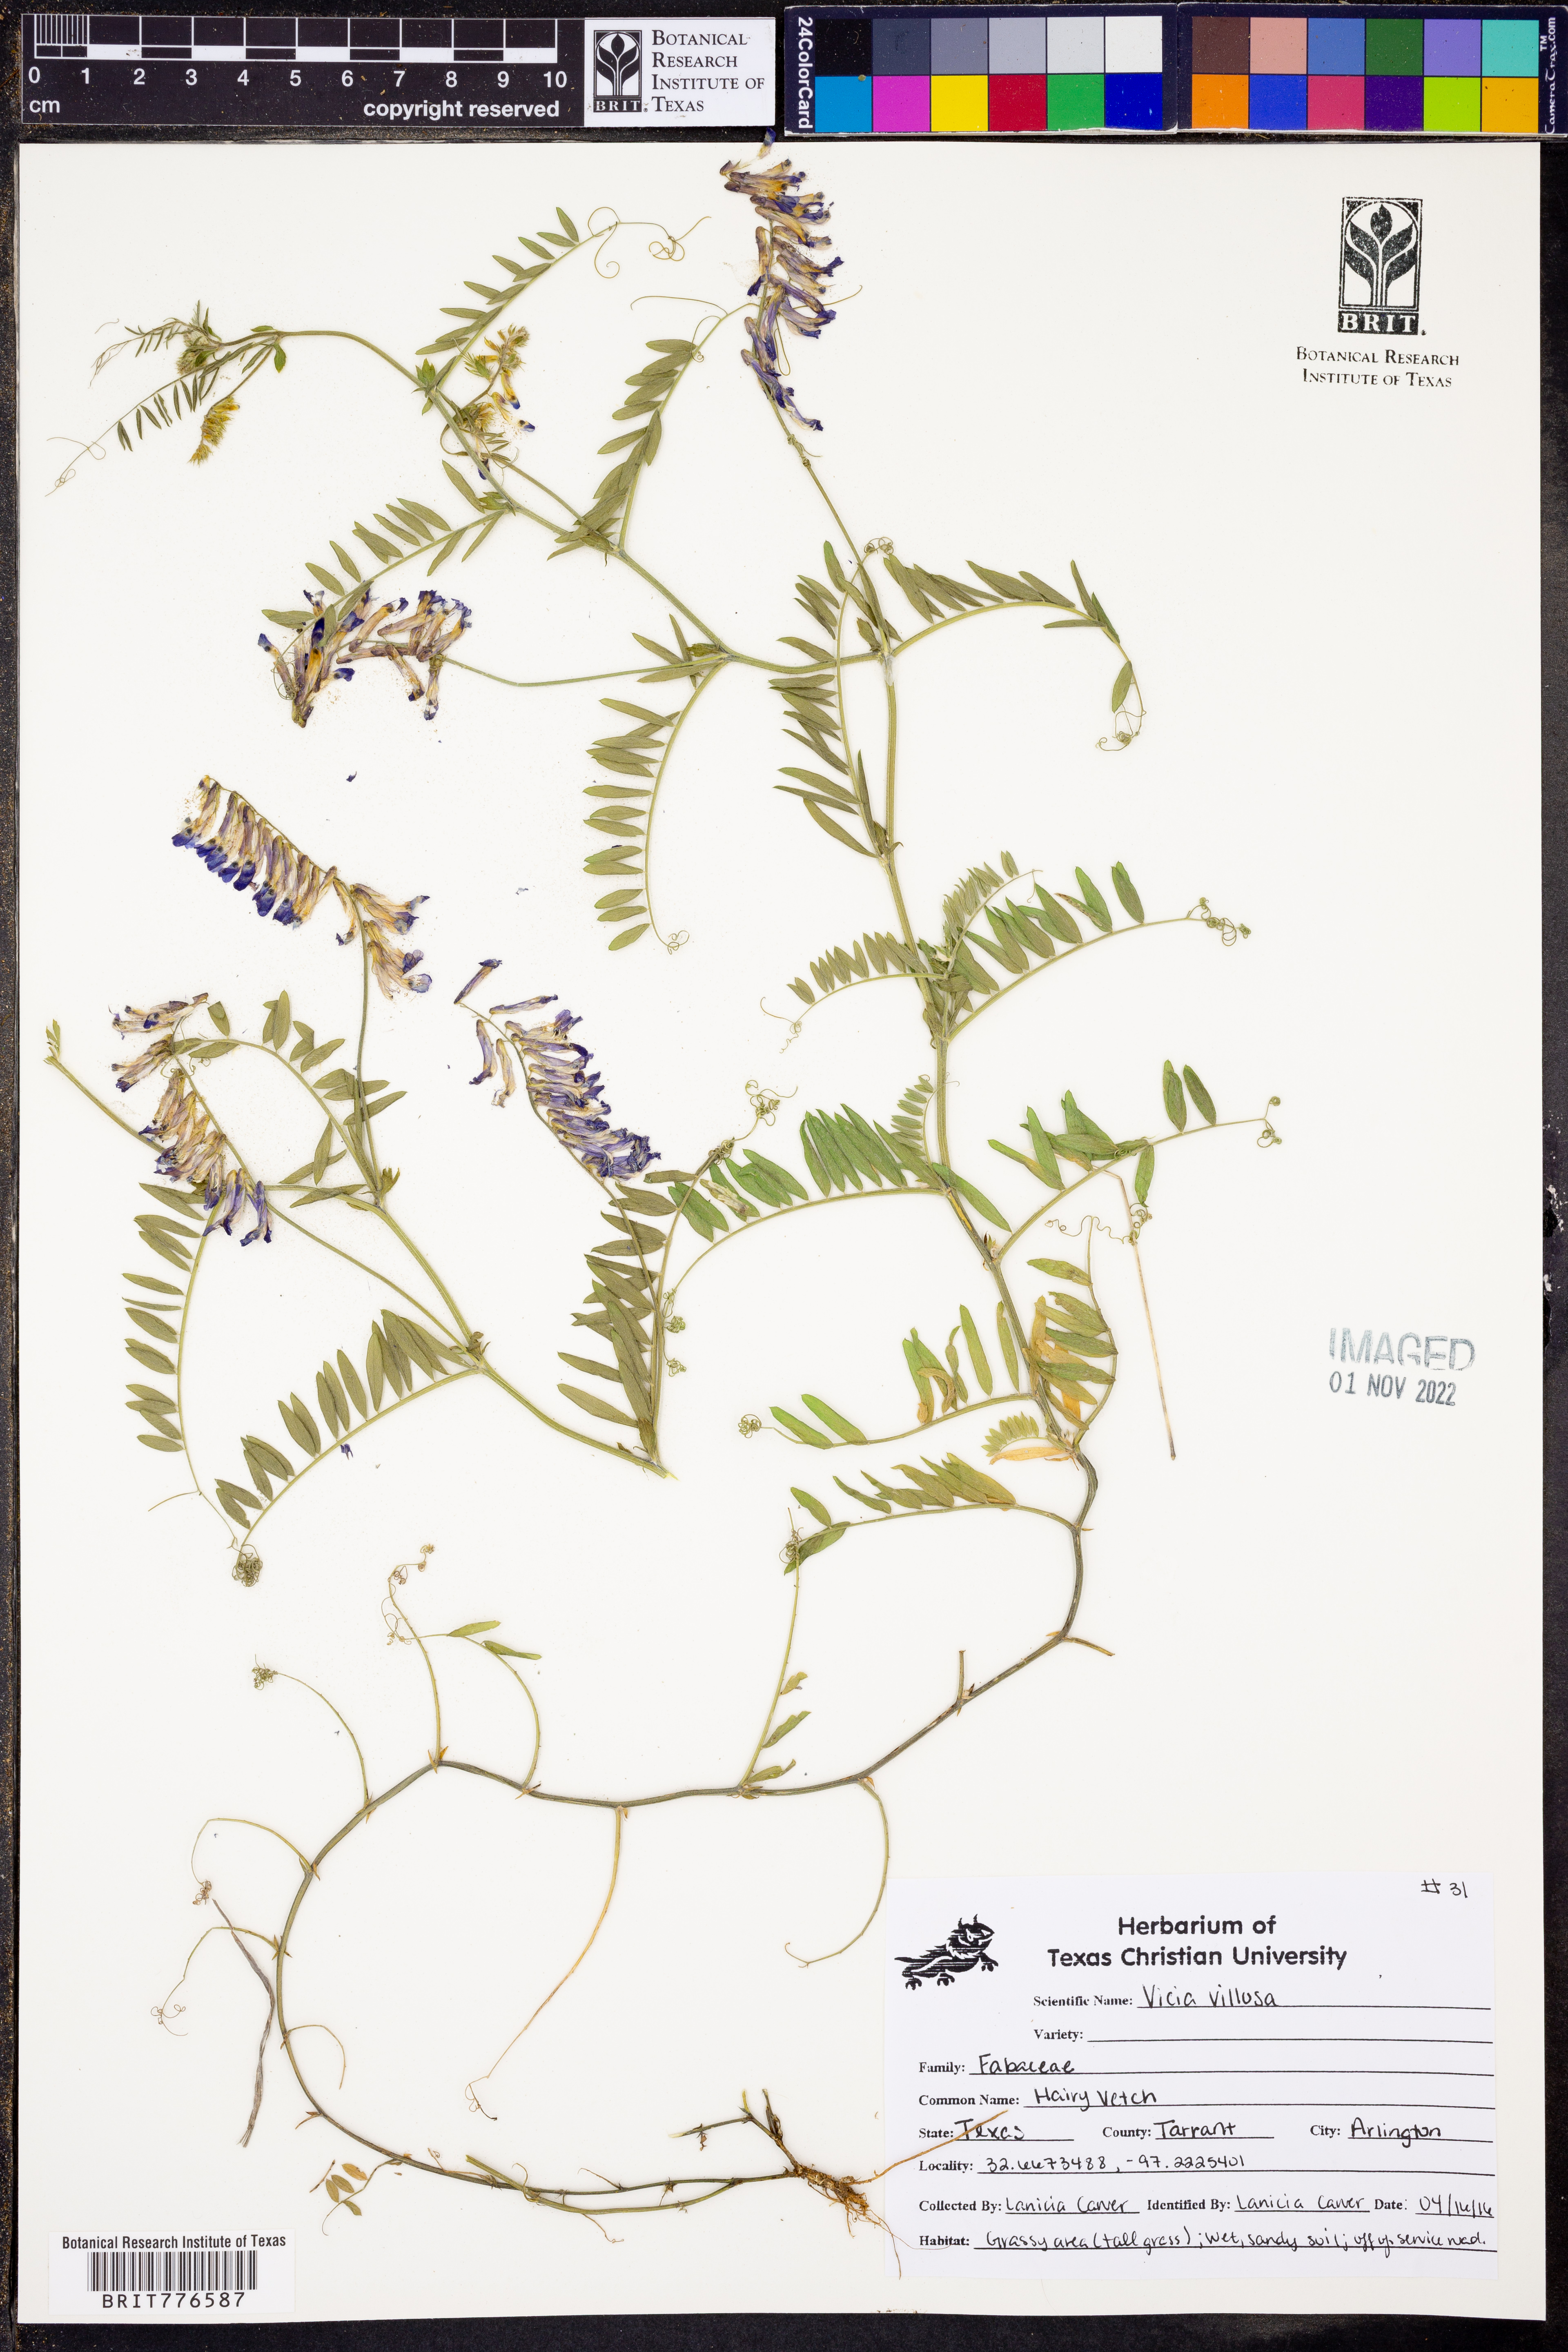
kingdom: Plantae
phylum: Tracheophyta
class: Magnoliopsida
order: Fabales
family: Fabaceae
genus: Vicia
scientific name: Vicia villosa
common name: Fodder vetch
